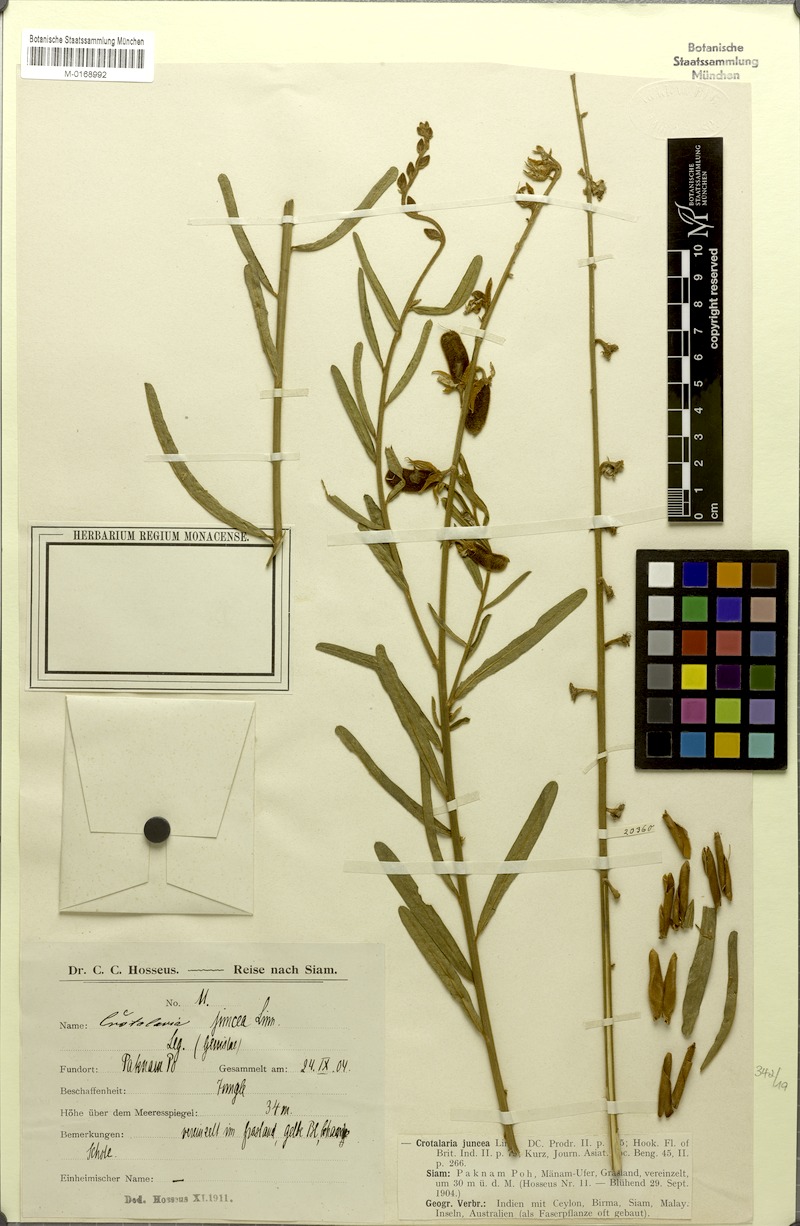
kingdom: Plantae
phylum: Tracheophyta
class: Magnoliopsida
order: Fabales
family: Fabaceae
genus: Crotalaria
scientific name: Crotalaria juncea
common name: Sunn hemp
